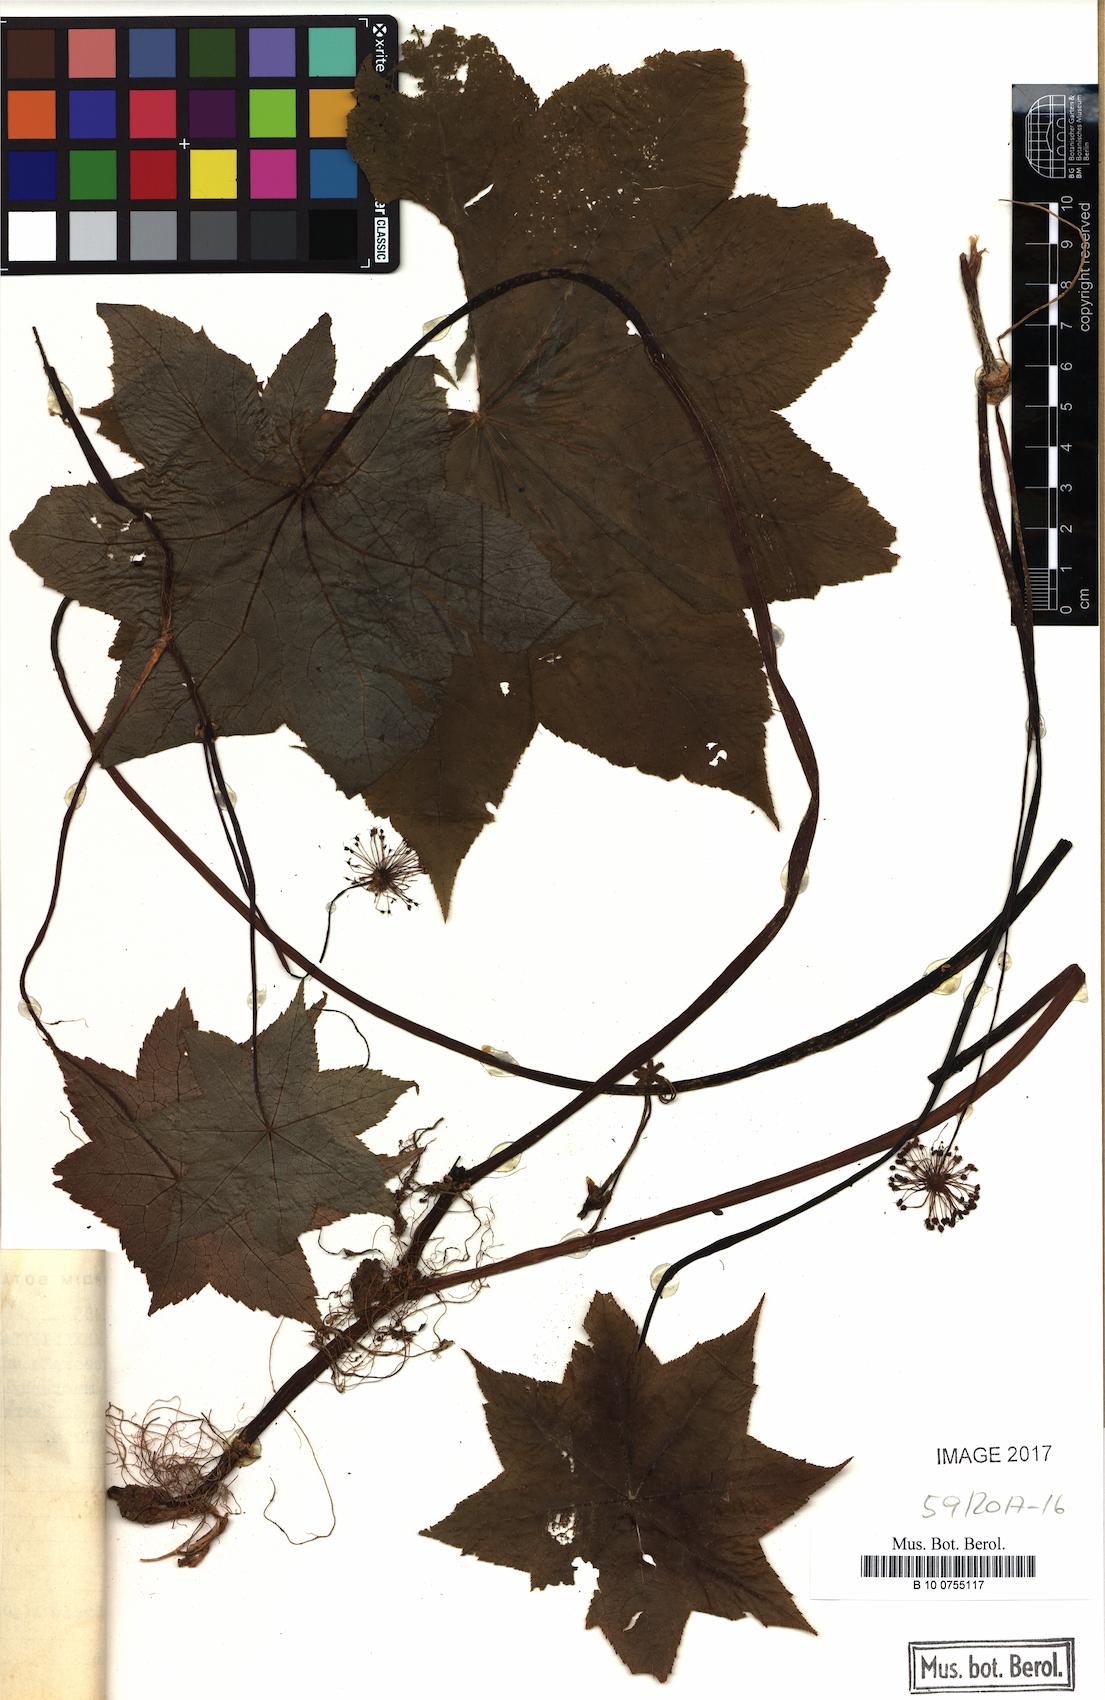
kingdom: Plantae
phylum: Tracheophyta
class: Magnoliopsida
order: Apiales
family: Araliaceae
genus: Hydrocotyle
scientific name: Hydrocotyle quinqueloba
